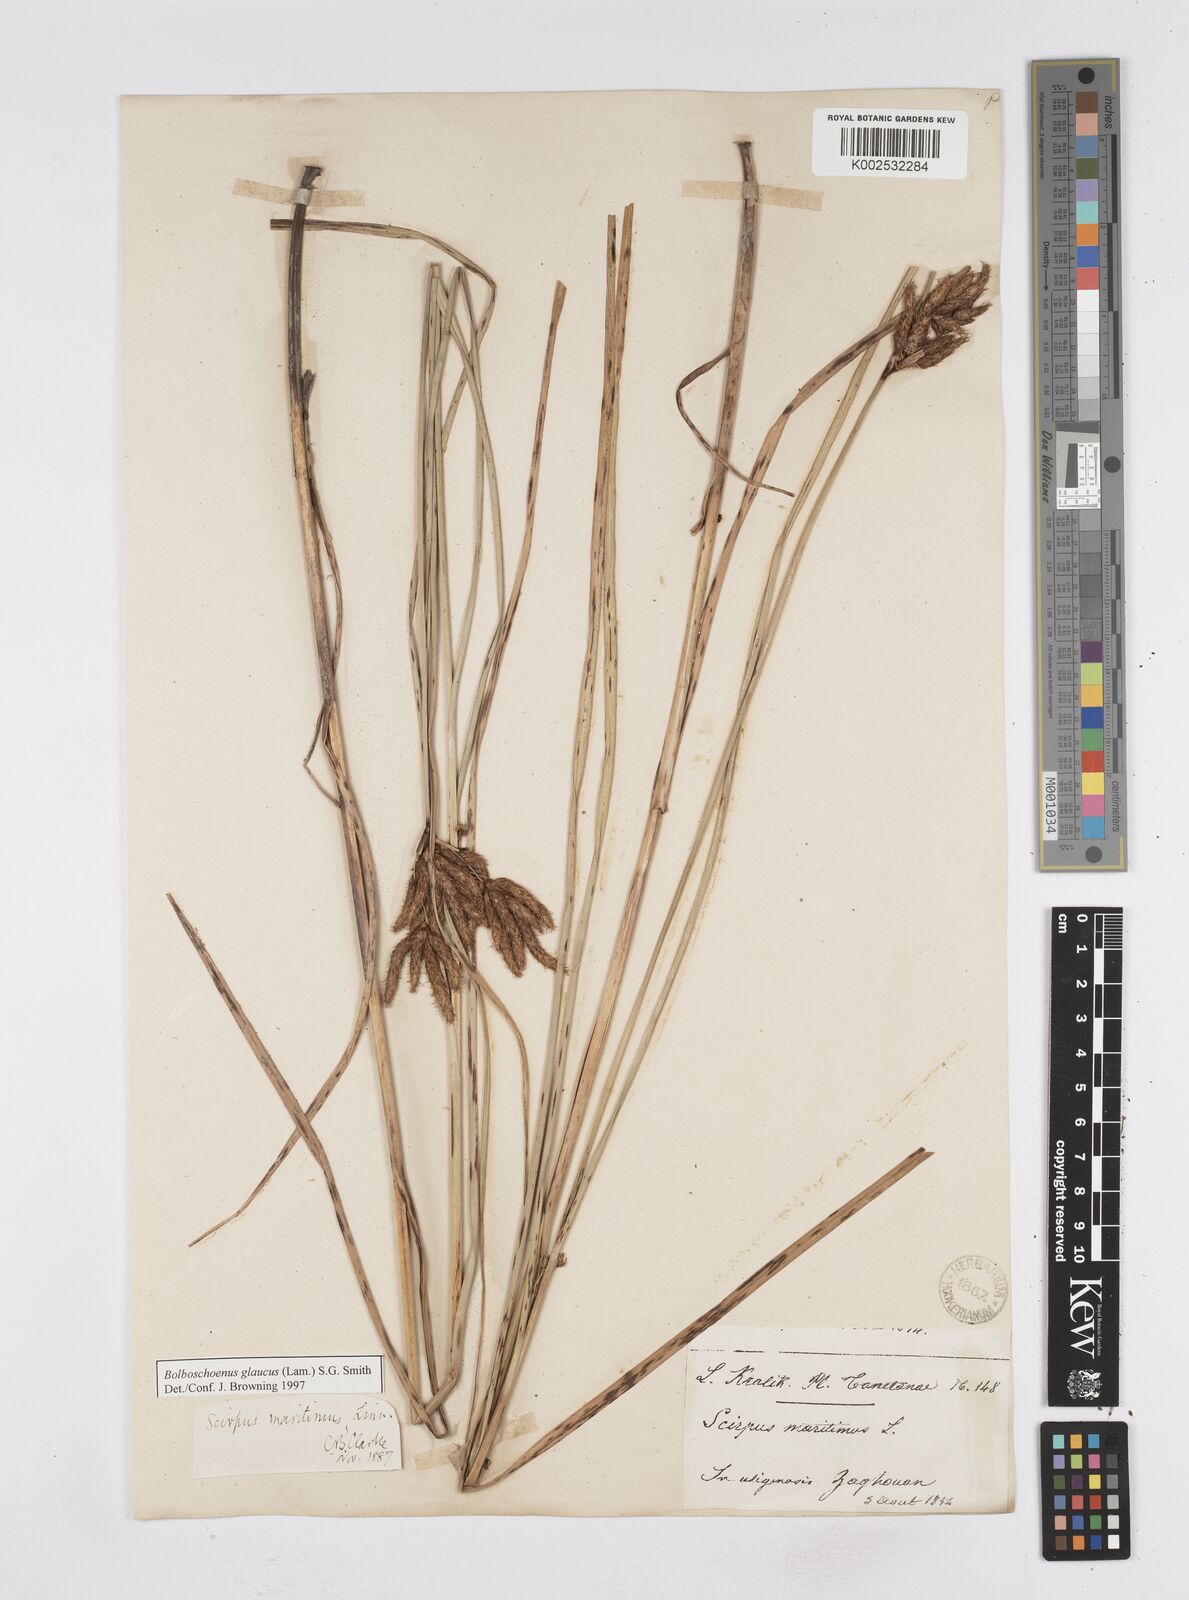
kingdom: Plantae
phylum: Tracheophyta
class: Liliopsida
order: Poales
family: Cyperaceae
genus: Bolboschoenus
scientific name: Bolboschoenus maritimus
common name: Sea club-rush
